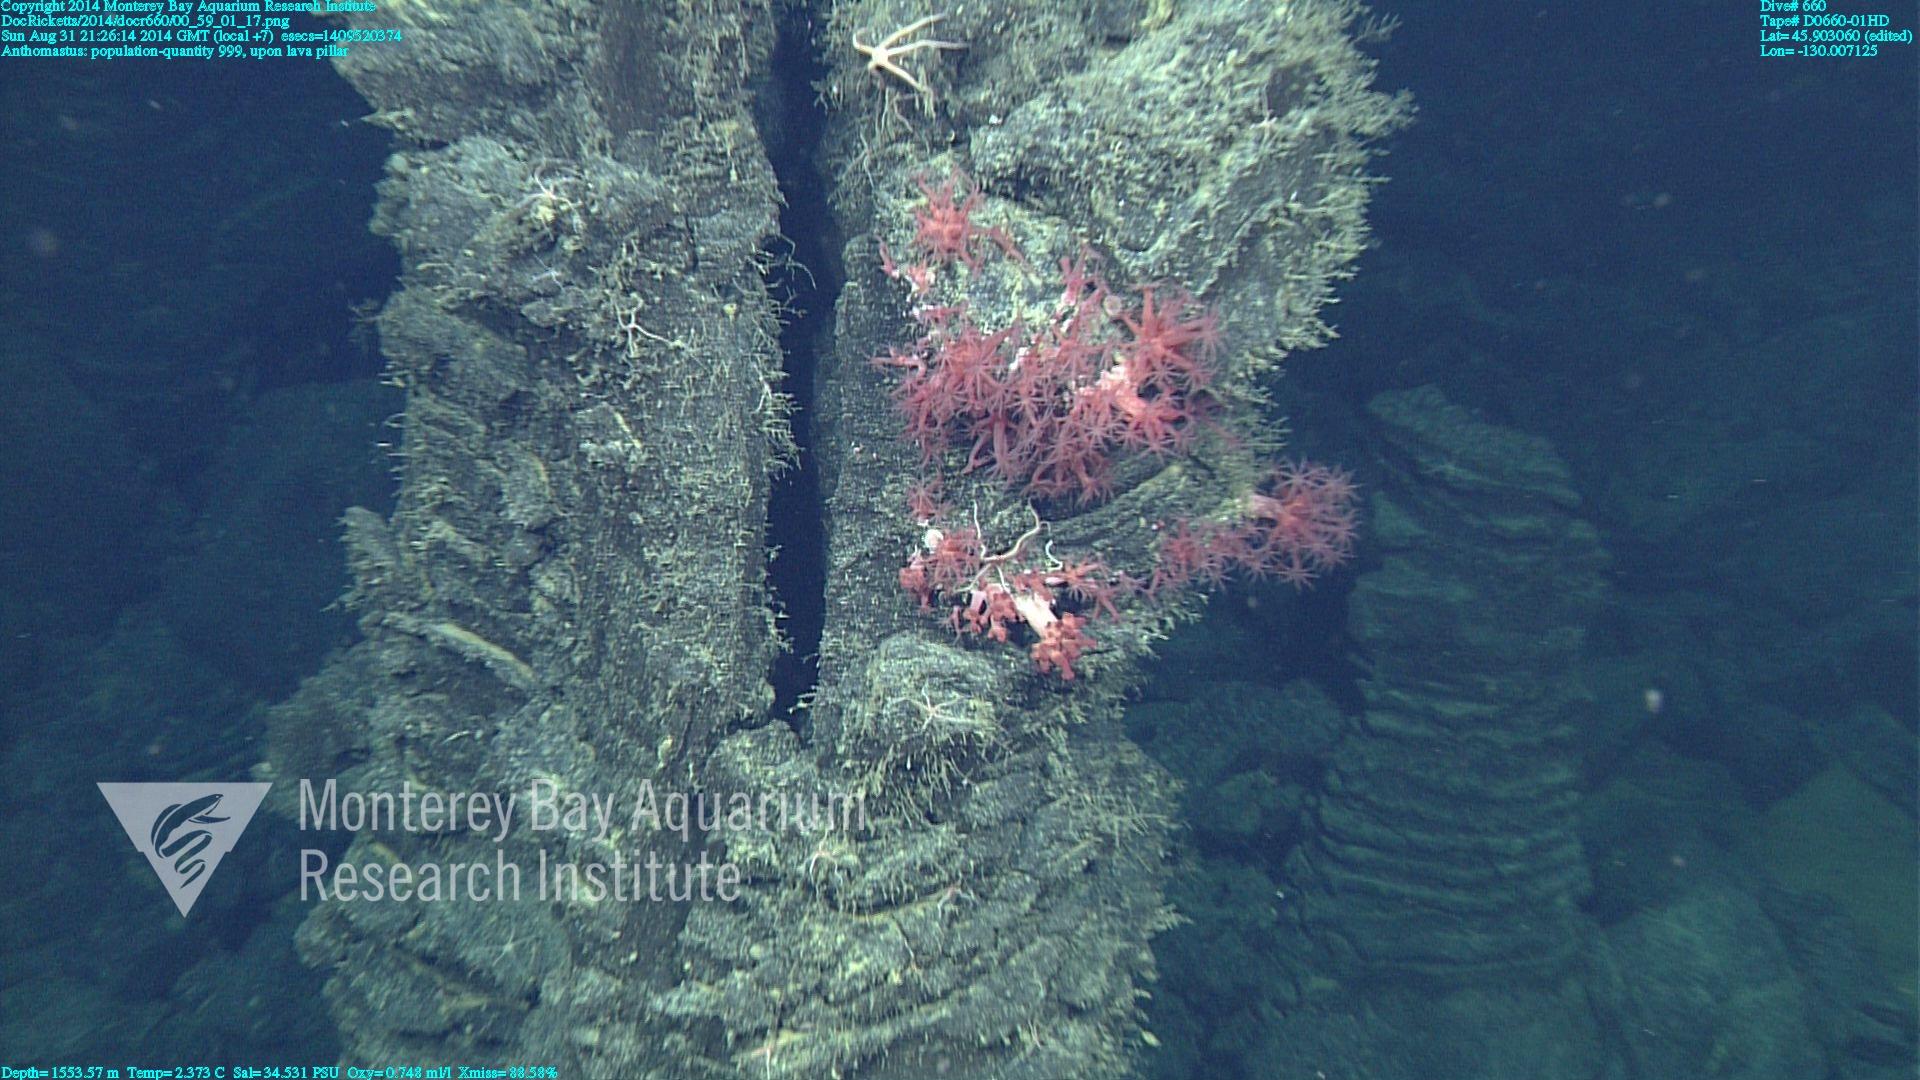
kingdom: Animalia
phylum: Cnidaria
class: Anthozoa
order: Scleralcyonacea
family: Coralliidae
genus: Heteropolypus
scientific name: Heteropolypus
